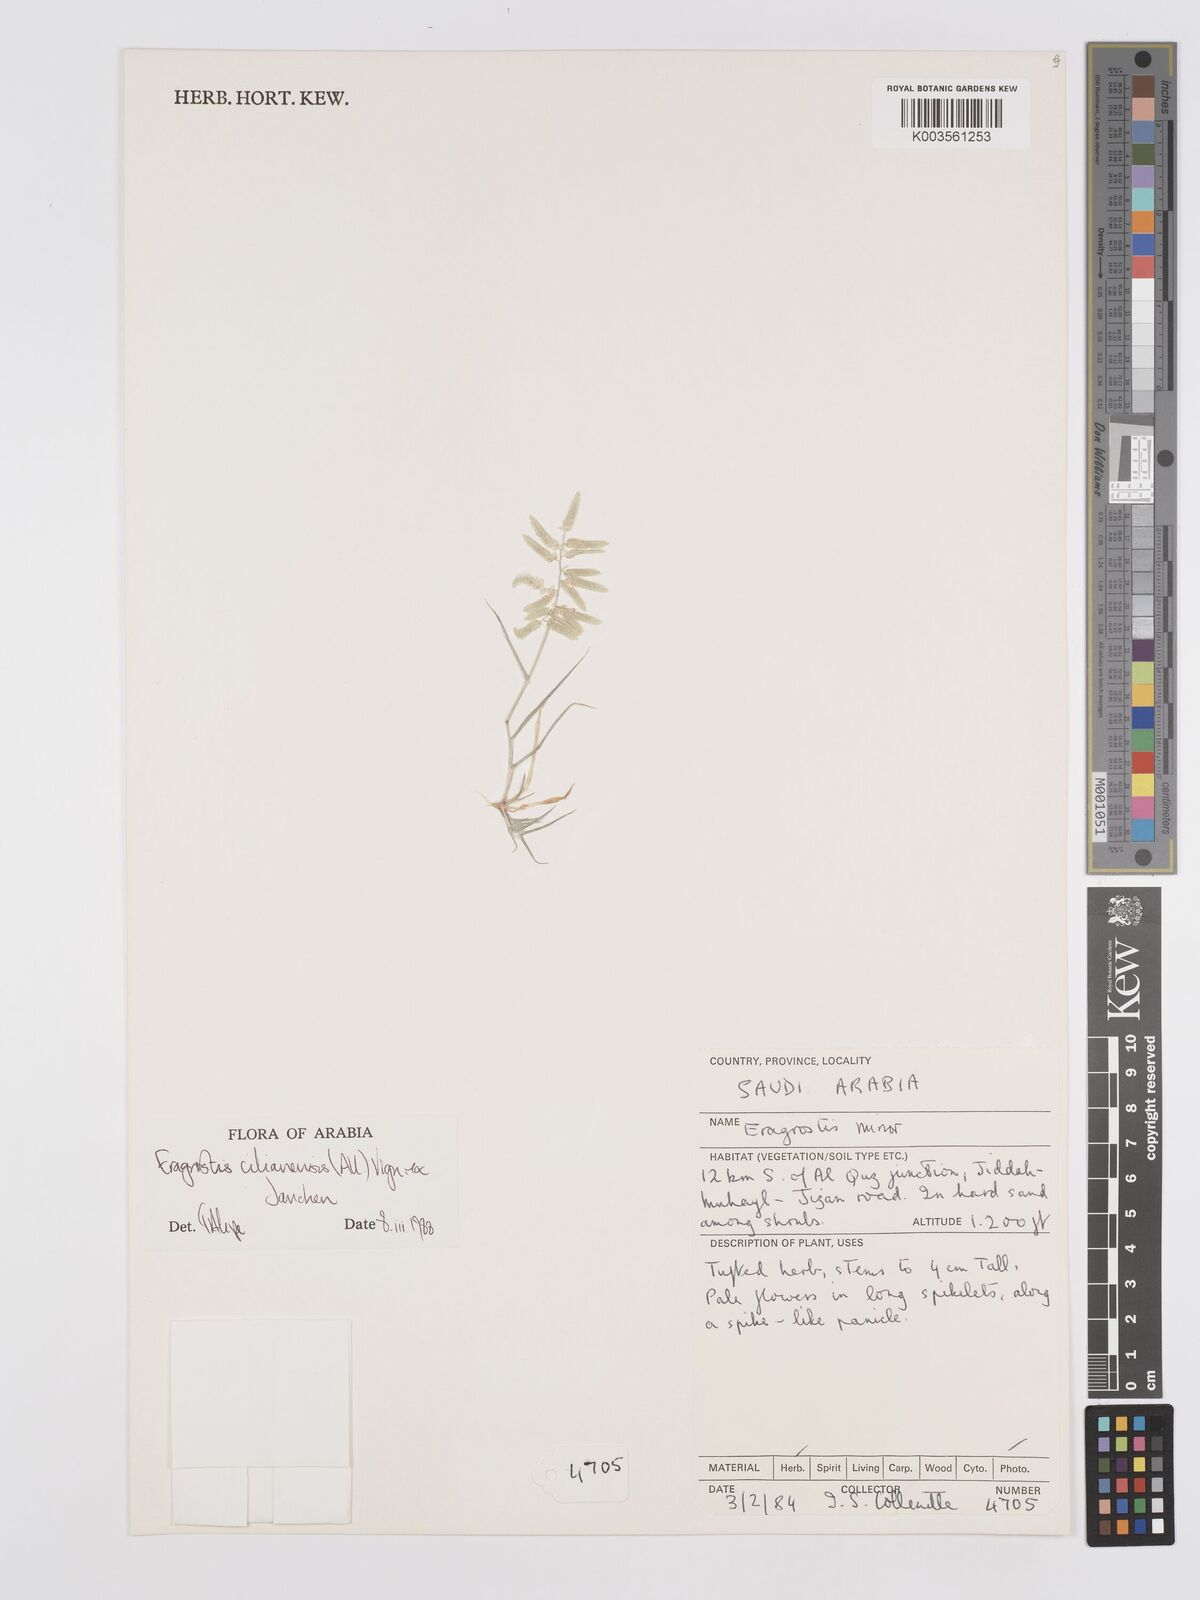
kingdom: Plantae
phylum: Tracheophyta
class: Liliopsida
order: Poales
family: Poaceae
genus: Eragrostis
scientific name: Eragrostis cilianensis
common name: Stinkgrass
